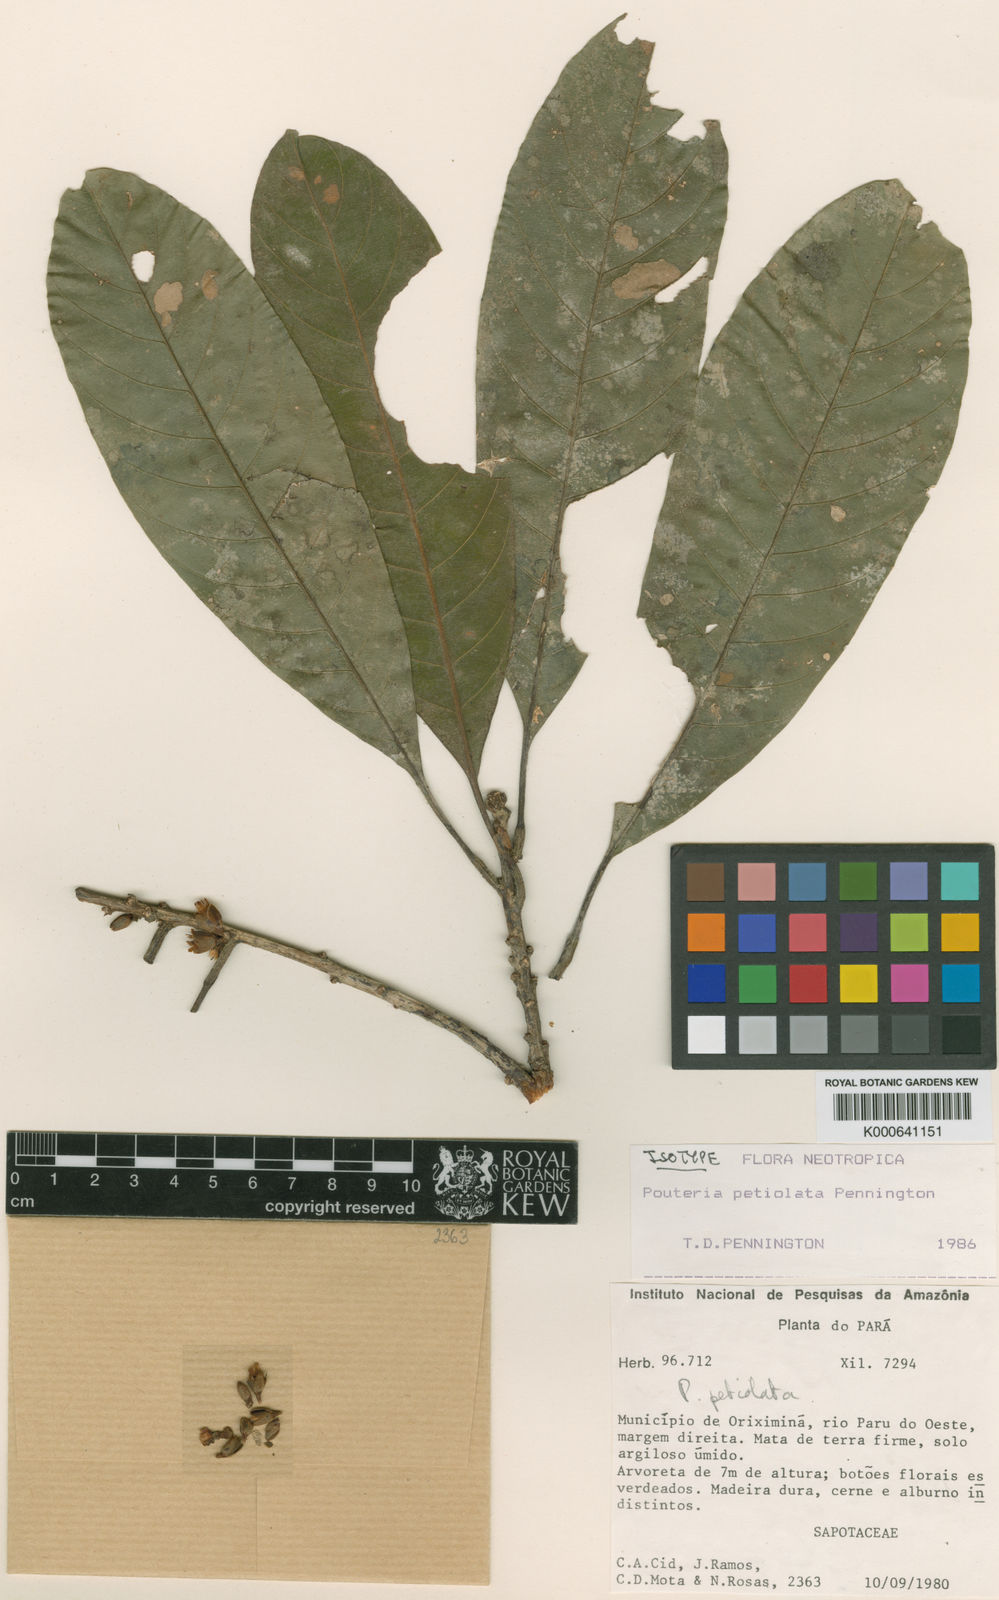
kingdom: Plantae
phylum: Tracheophyta
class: Magnoliopsida
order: Ericales
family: Sapotaceae
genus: Pouteria
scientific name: Pouteria petiolata
